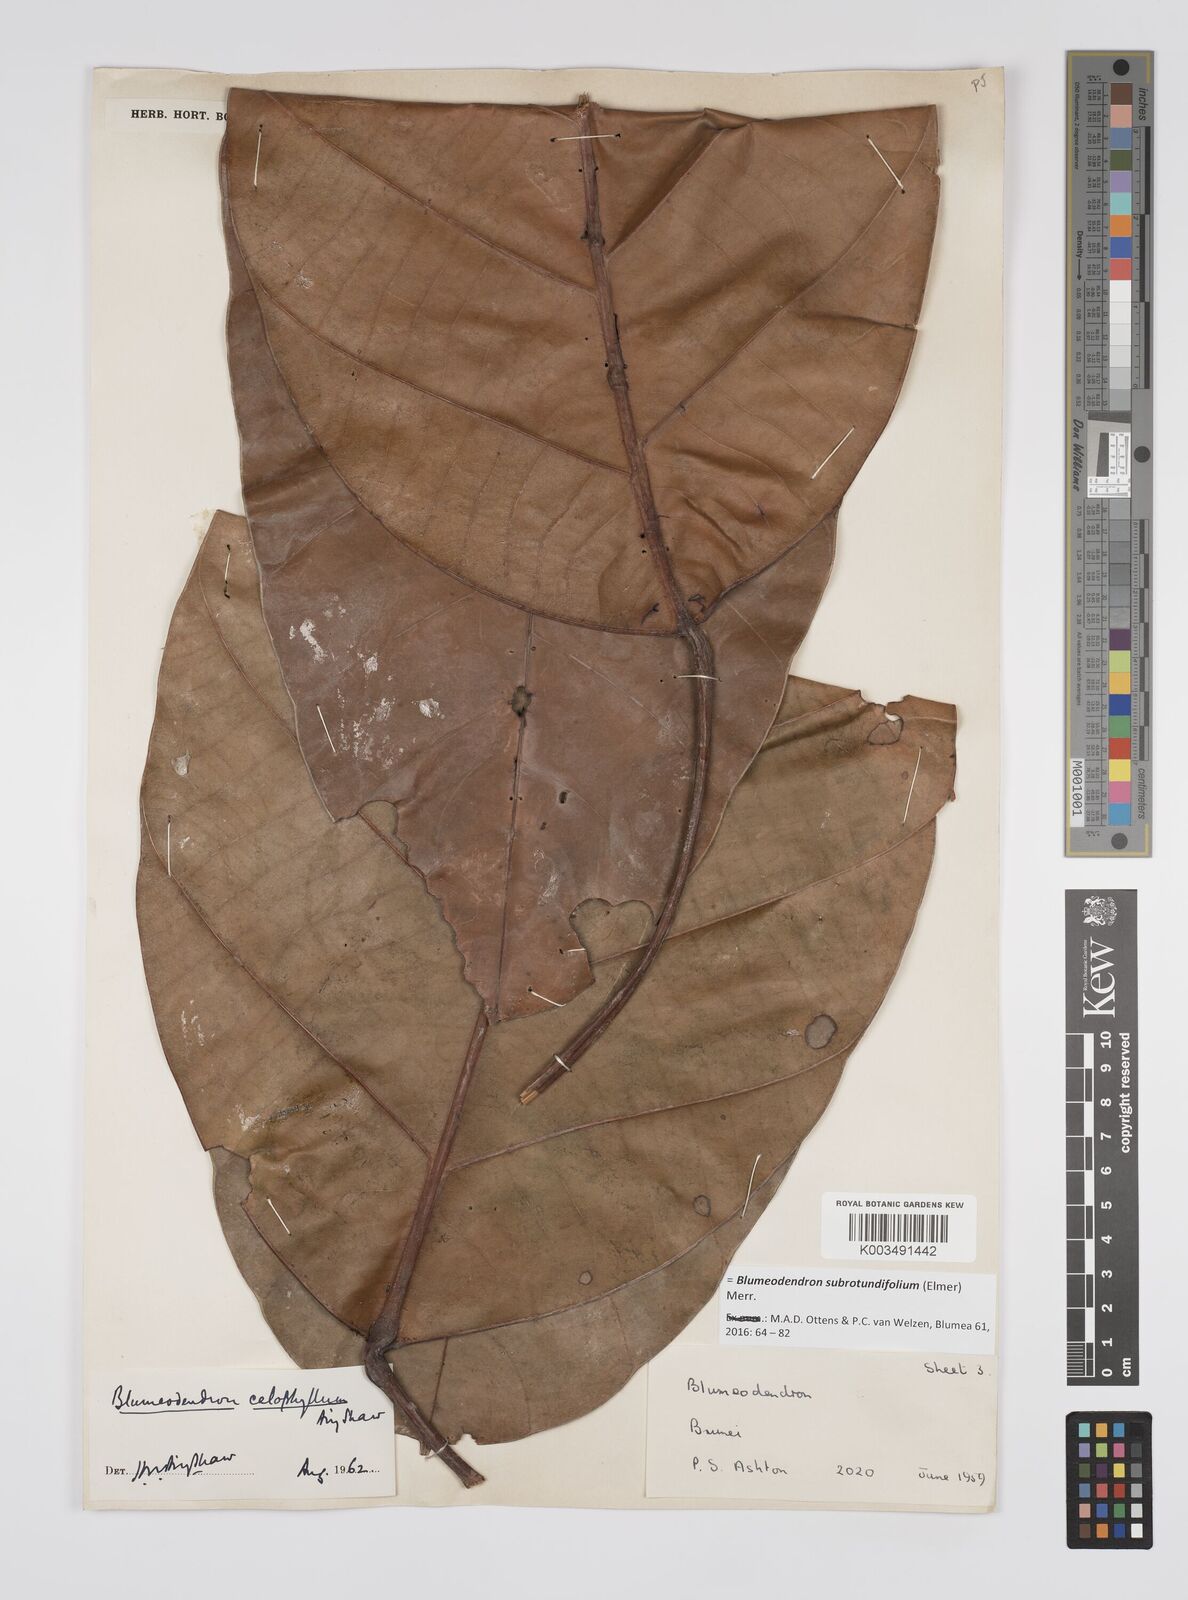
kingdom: Plantae
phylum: Tracheophyta
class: Magnoliopsida
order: Malpighiales
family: Euphorbiaceae
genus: Blumeodendron
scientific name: Blumeodendron subrotundifolium
